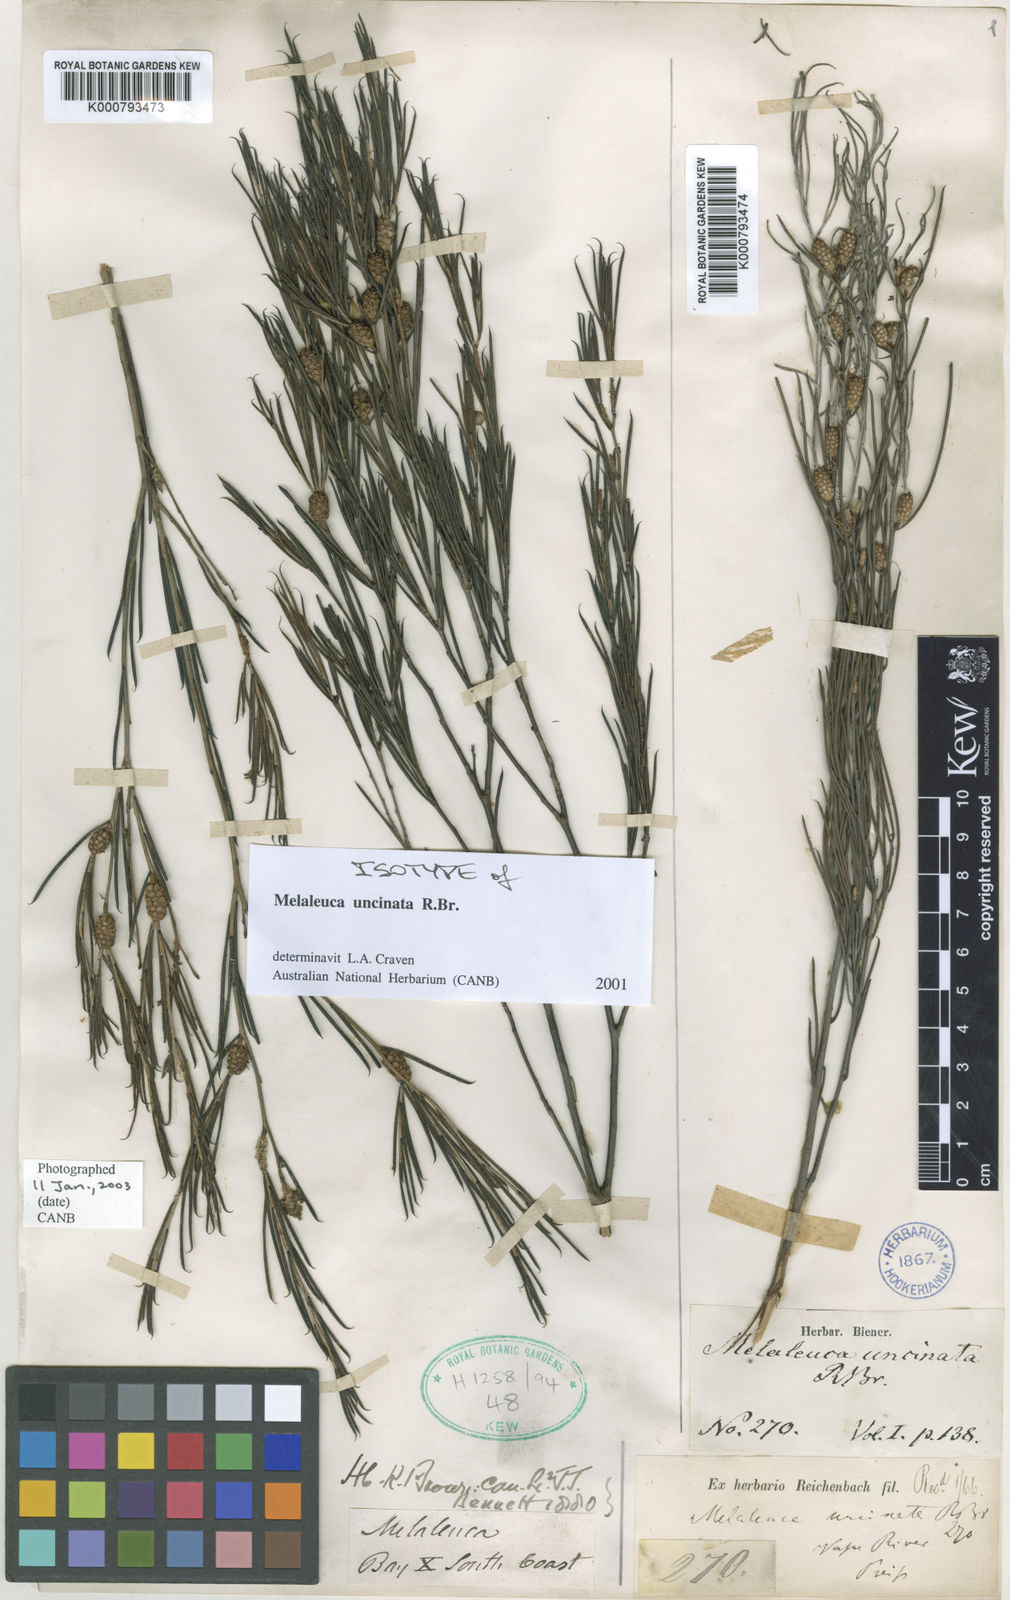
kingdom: Plantae
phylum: Tracheophyta
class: Magnoliopsida
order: Myrtales
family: Myrtaceae
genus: Melaleuca
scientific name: Melaleuca uncinata
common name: Broom honey myrtle
